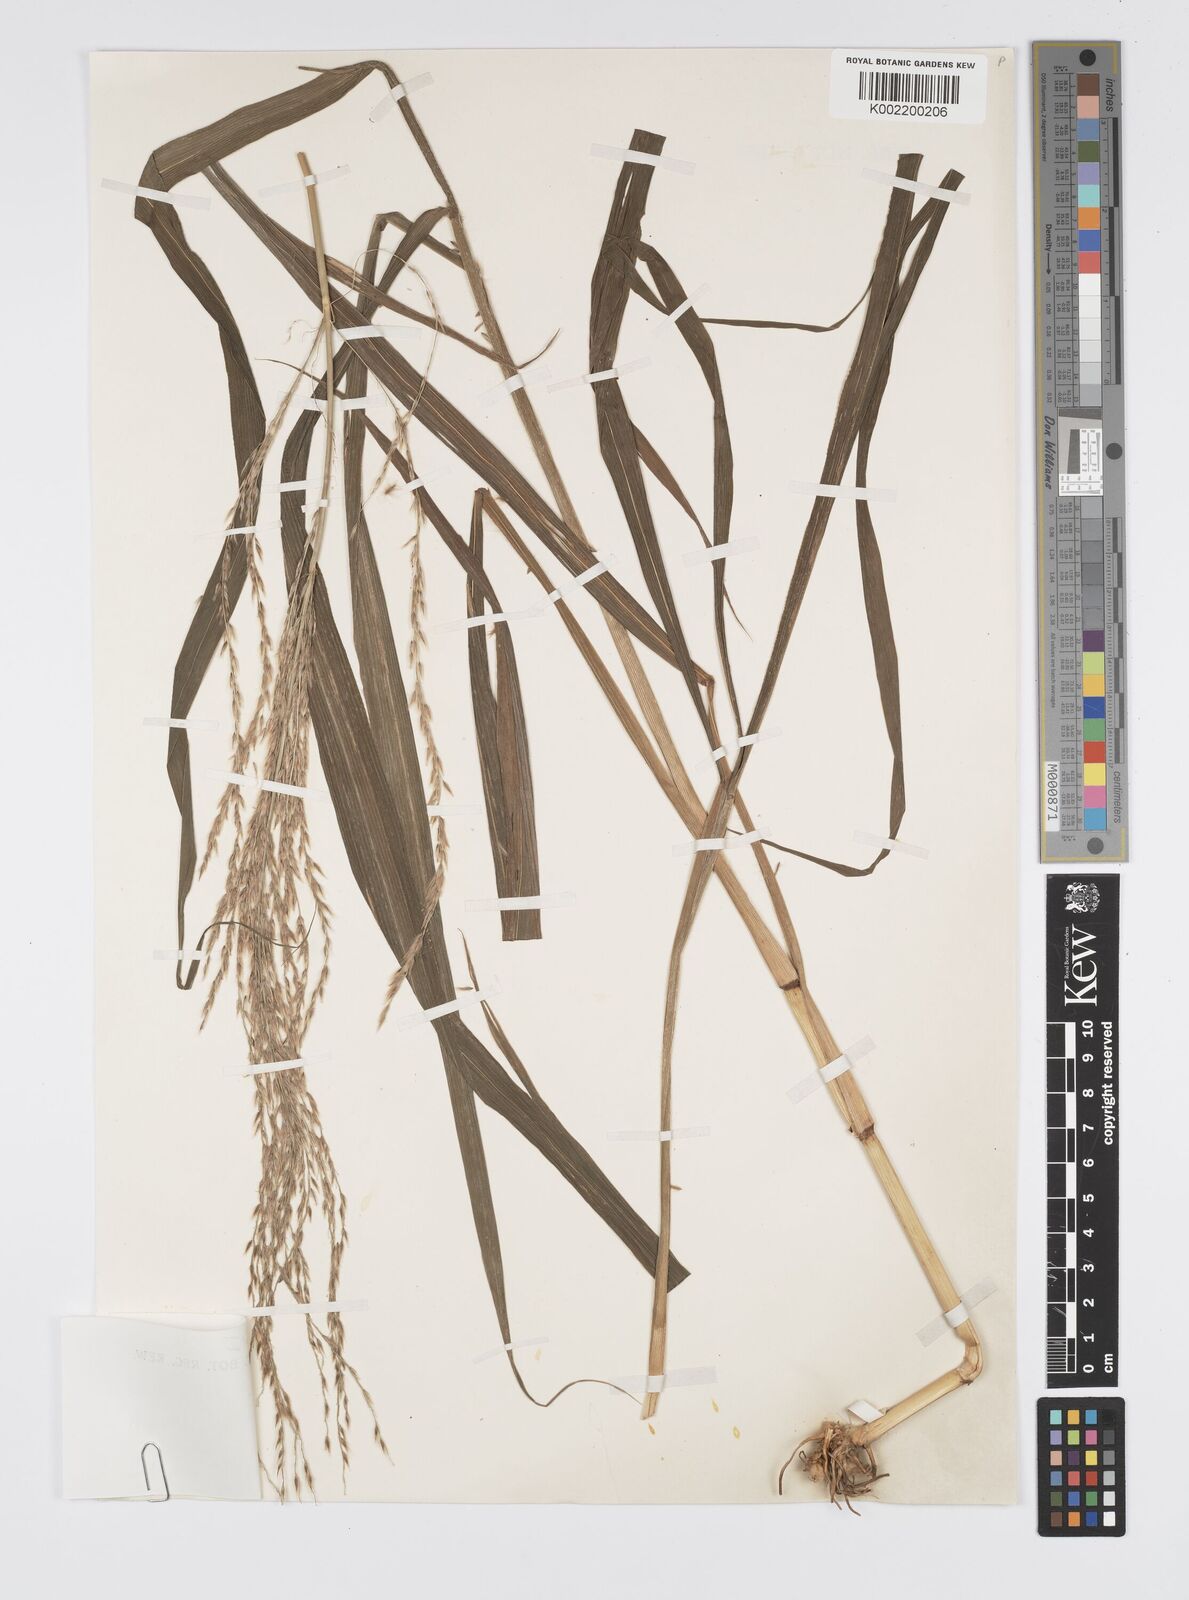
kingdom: Plantae
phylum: Tracheophyta
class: Liliopsida
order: Poales
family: Poaceae
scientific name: Poaceae
